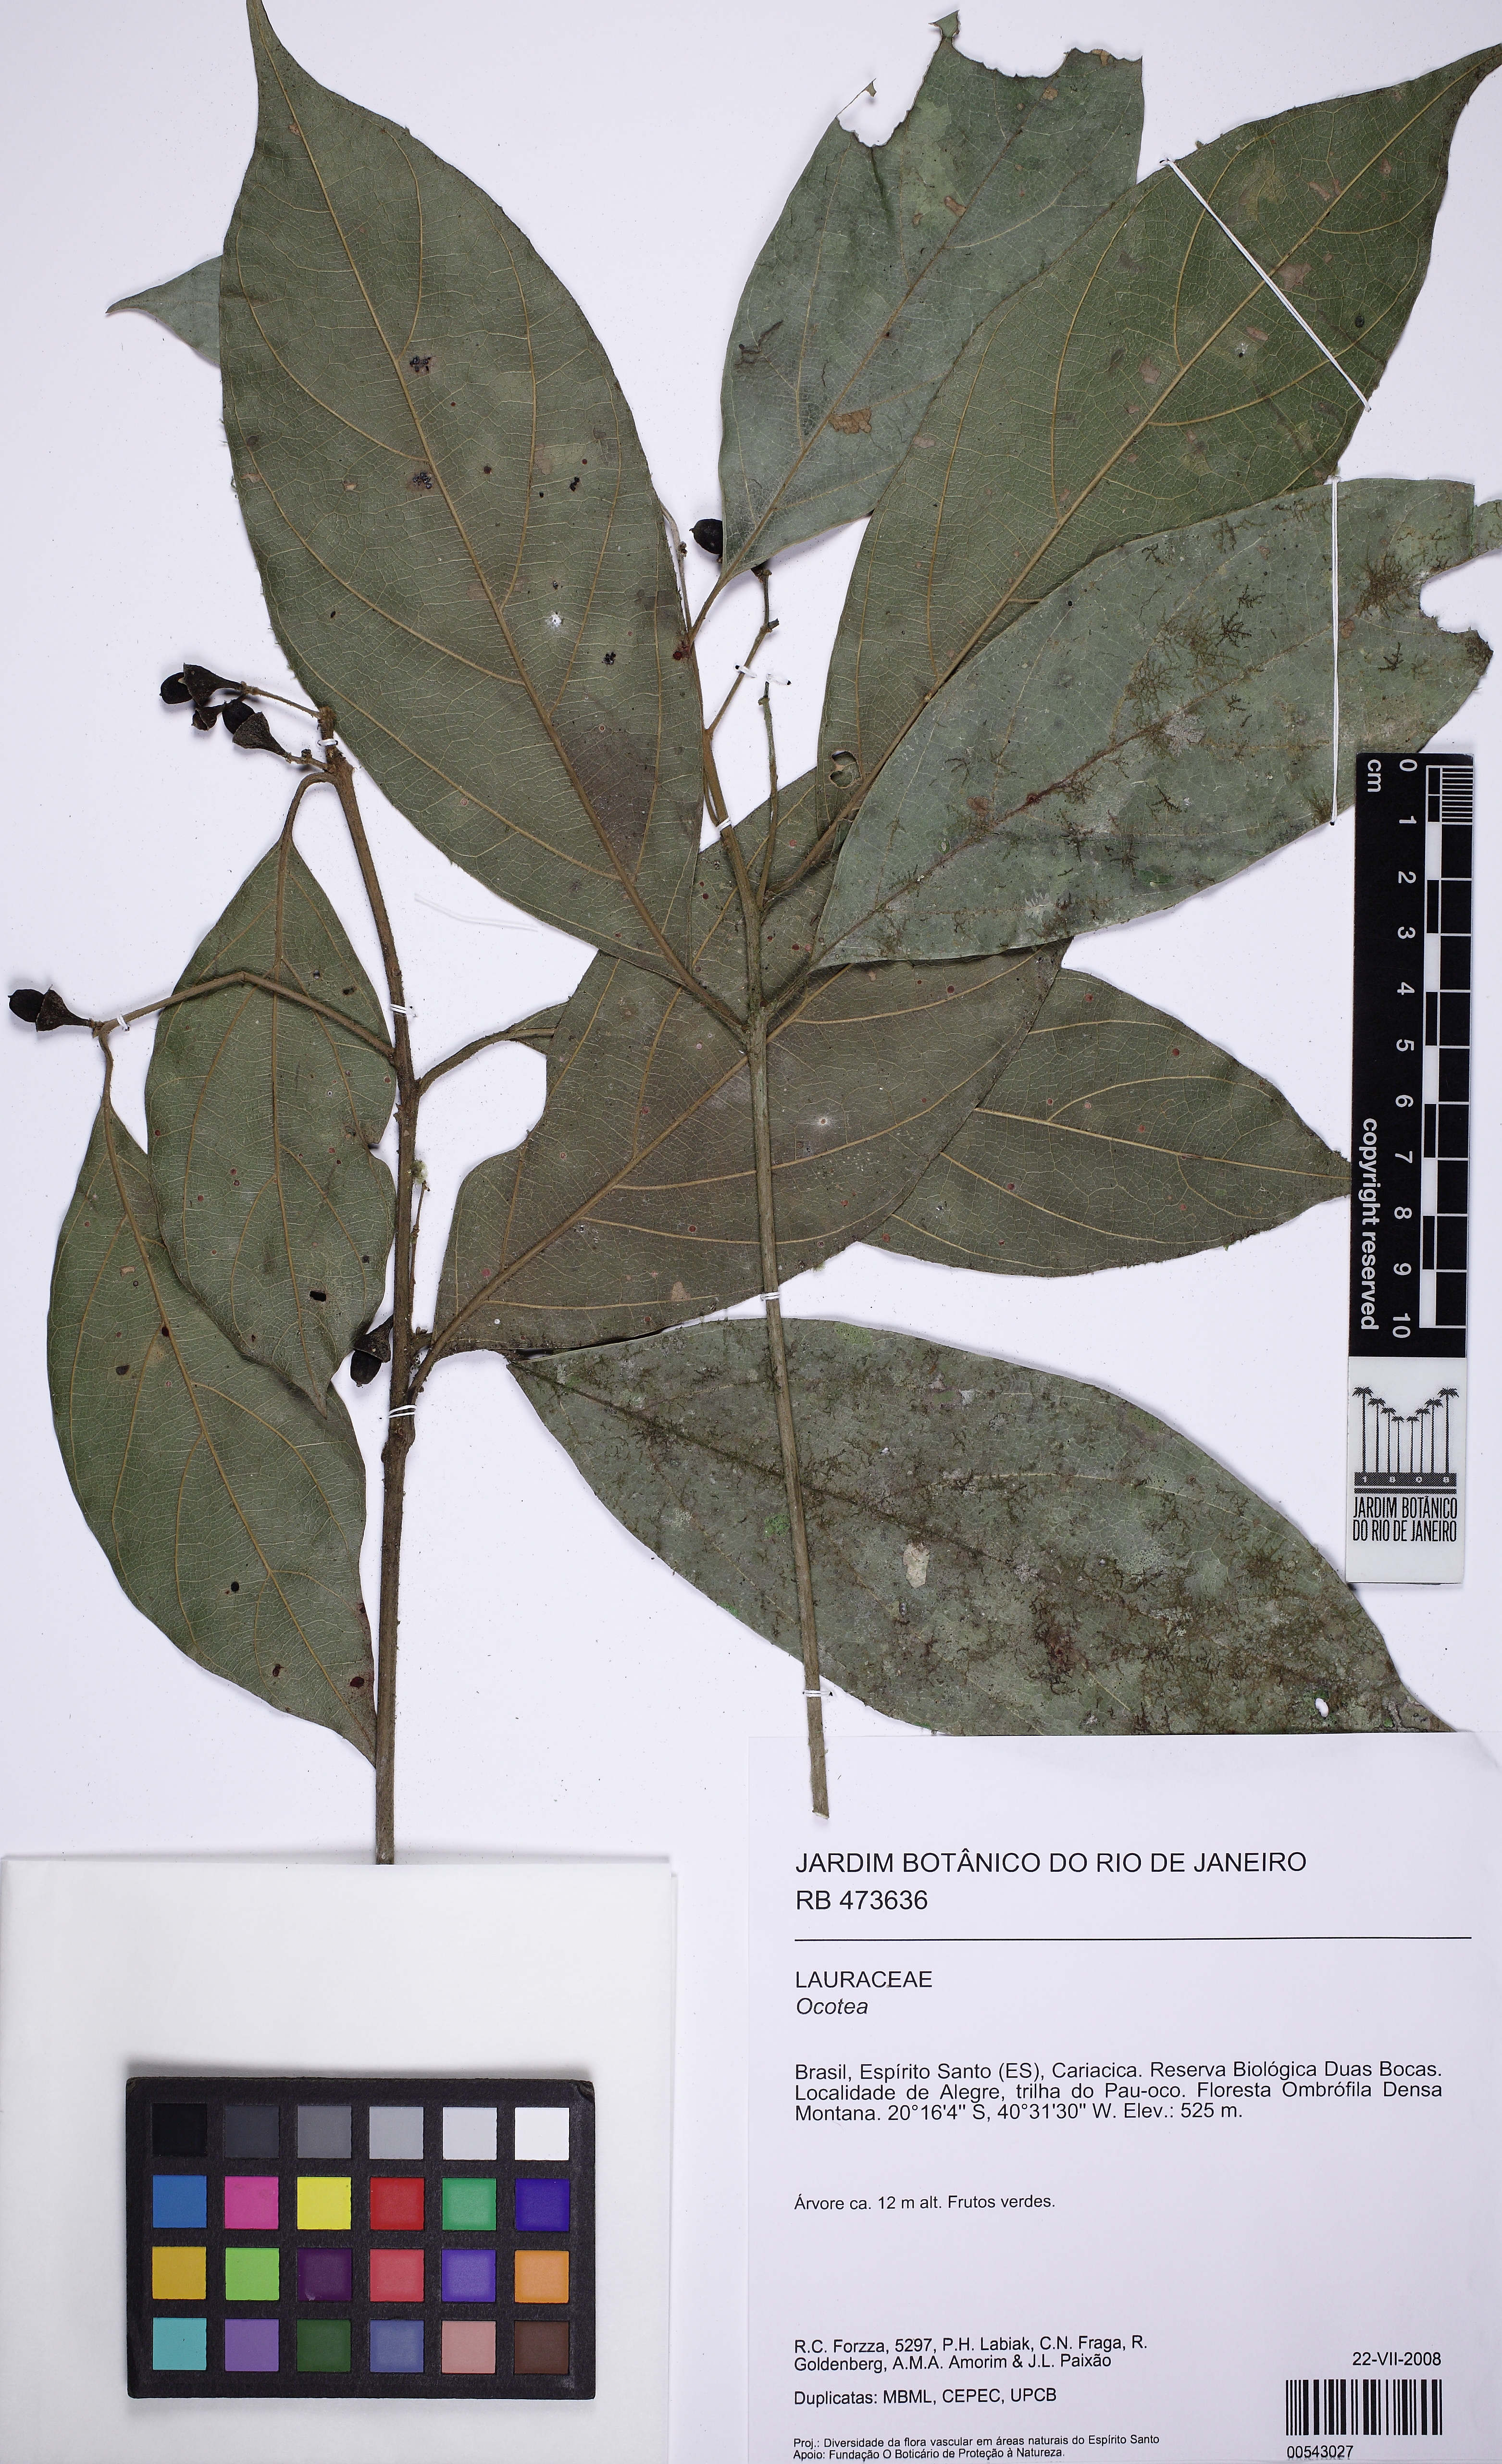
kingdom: Plantae
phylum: Tracheophyta
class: Magnoliopsida
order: Laurales
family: Lauraceae
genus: Endlicheria
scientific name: Endlicheria paniculata
